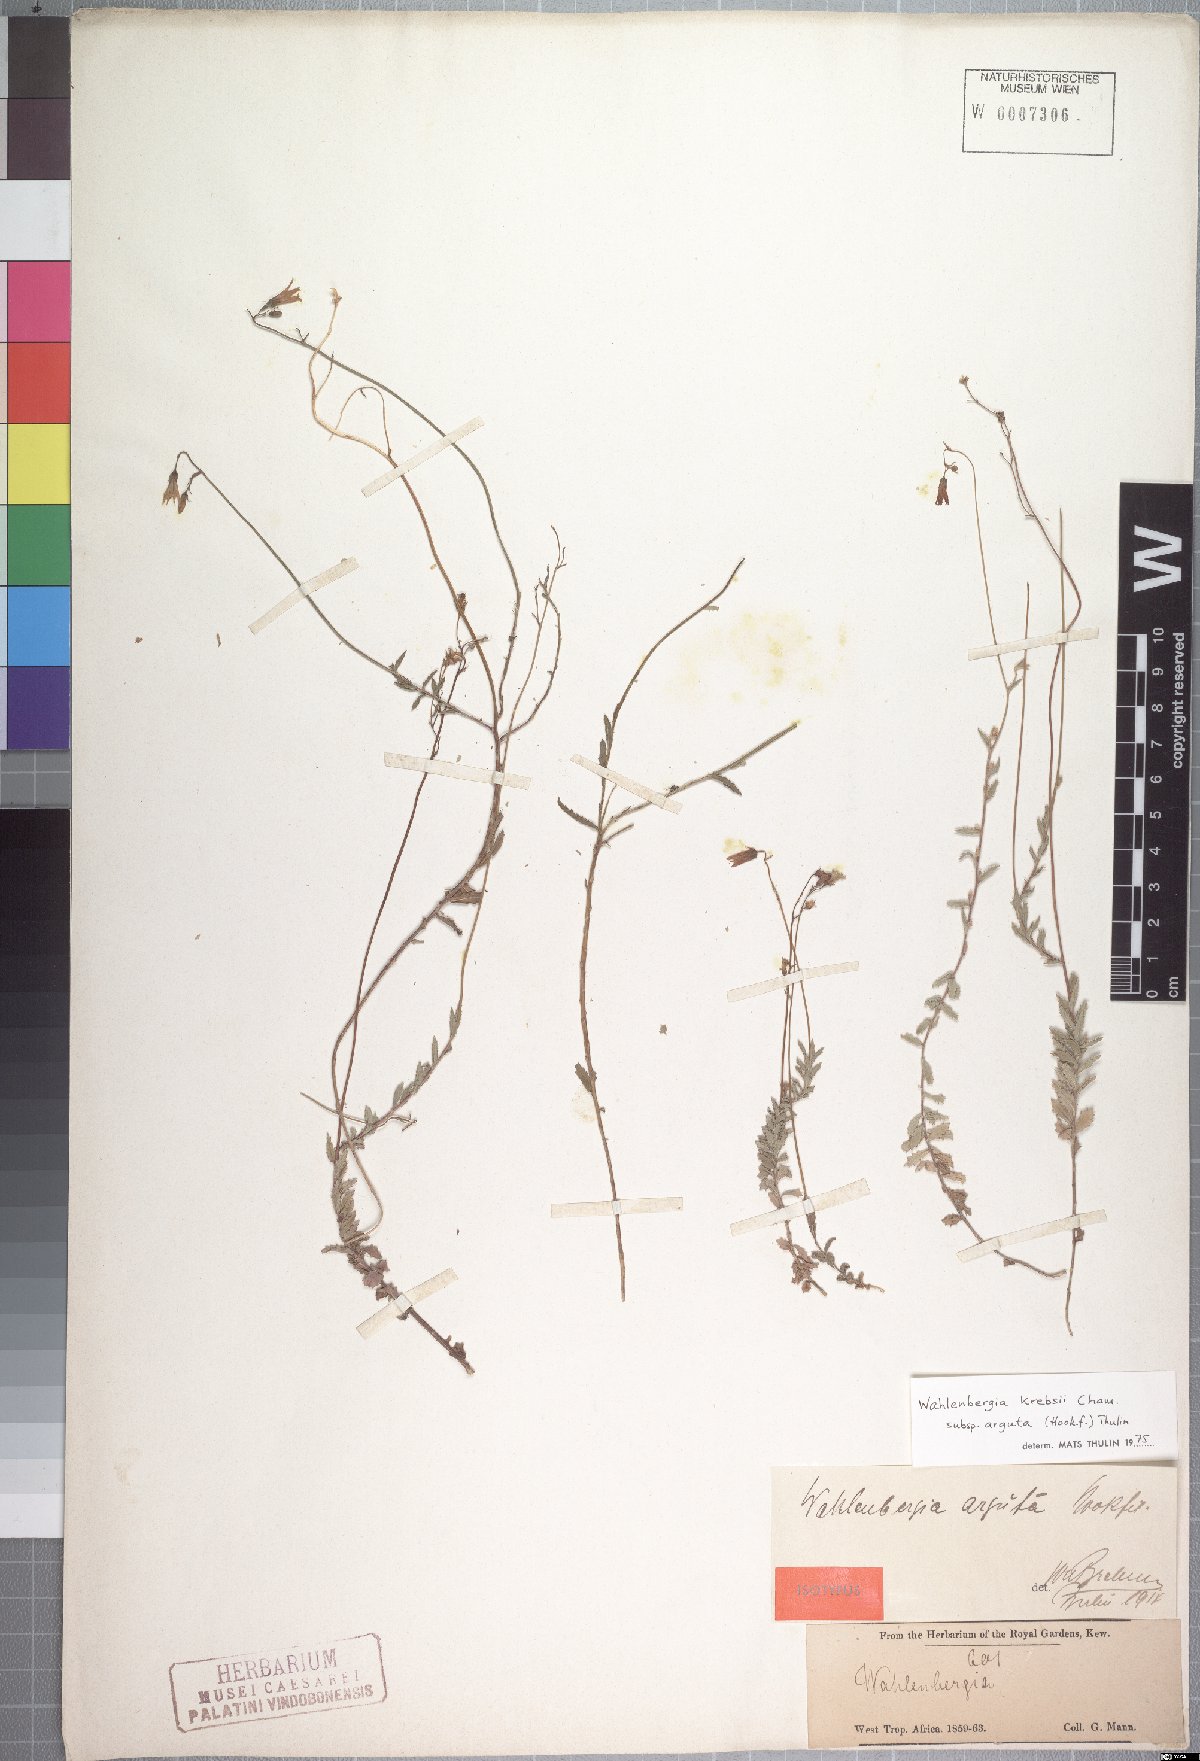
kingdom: Plantae
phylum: Tracheophyta
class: Magnoliopsida
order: Asterales
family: Campanulaceae
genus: Wahlenbergia
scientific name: Wahlenbergia krebsii
